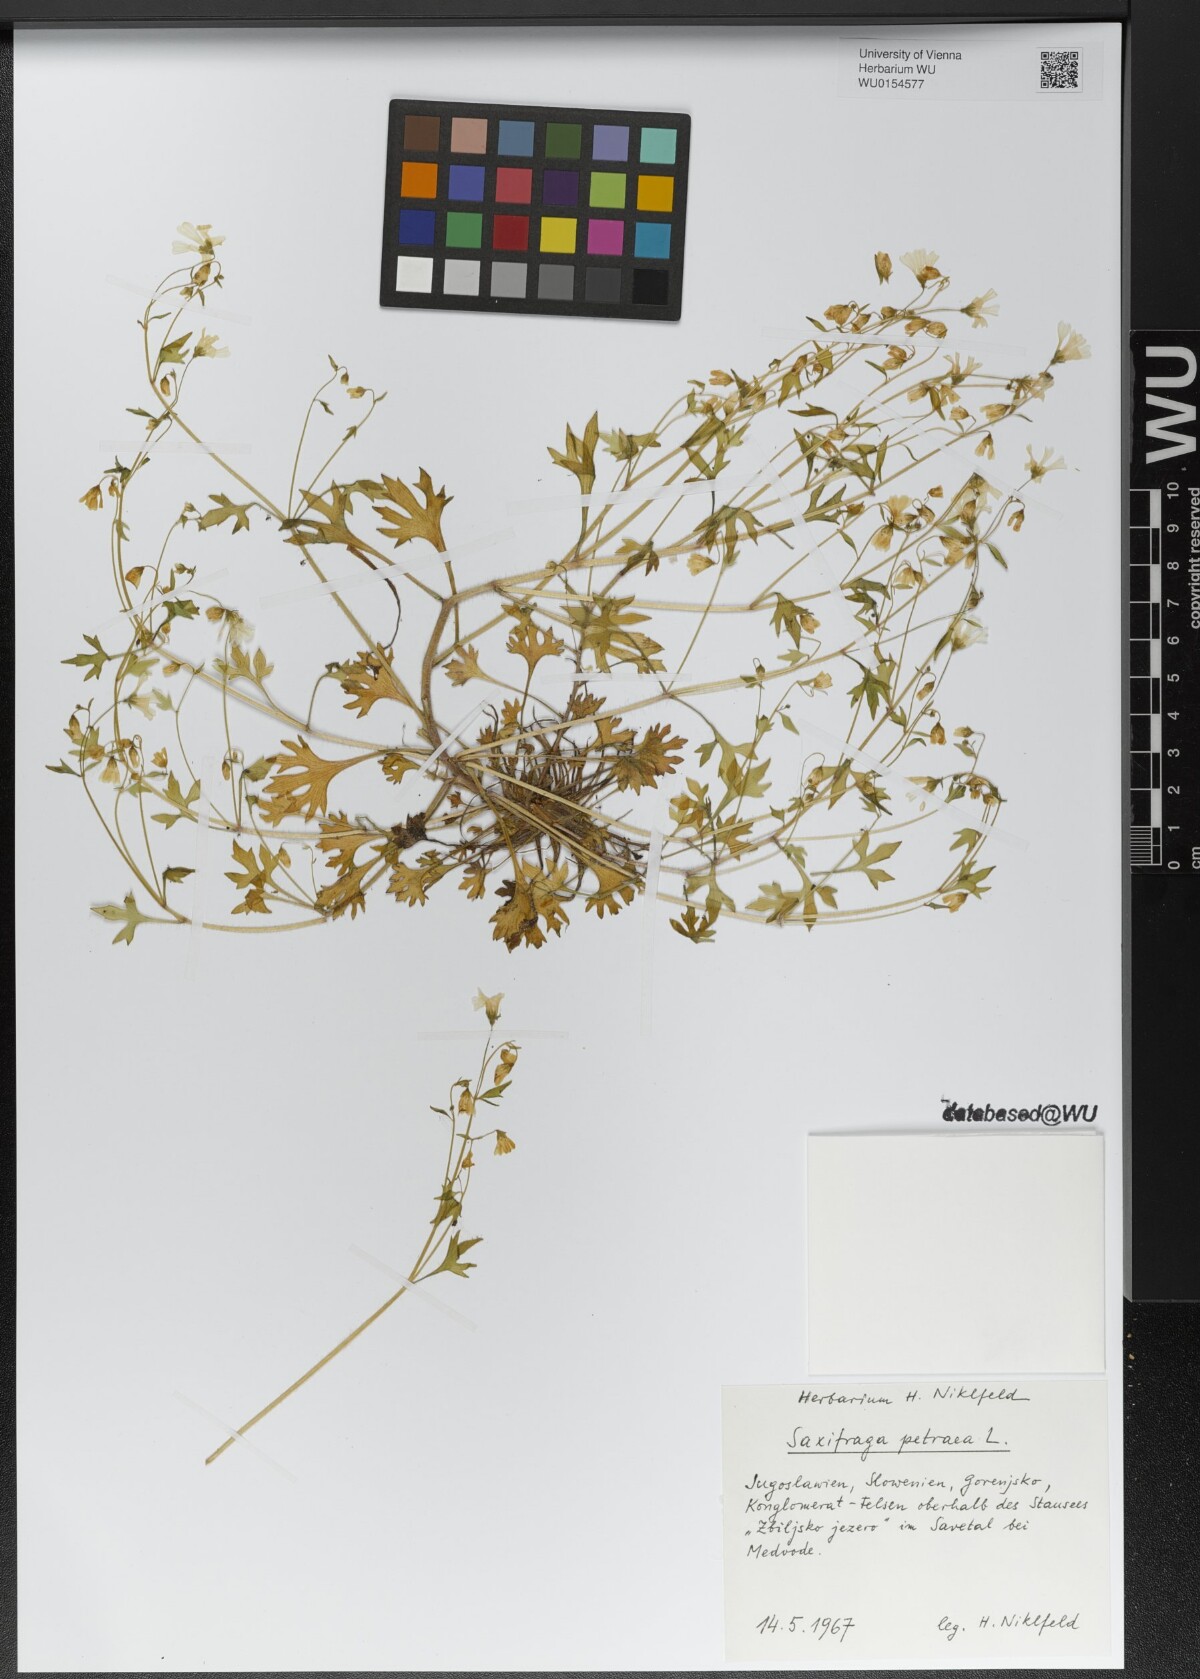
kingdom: Plantae
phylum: Tracheophyta
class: Magnoliopsida
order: Saxifragales
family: Saxifragaceae
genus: Saxifraga
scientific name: Saxifraga petraea
